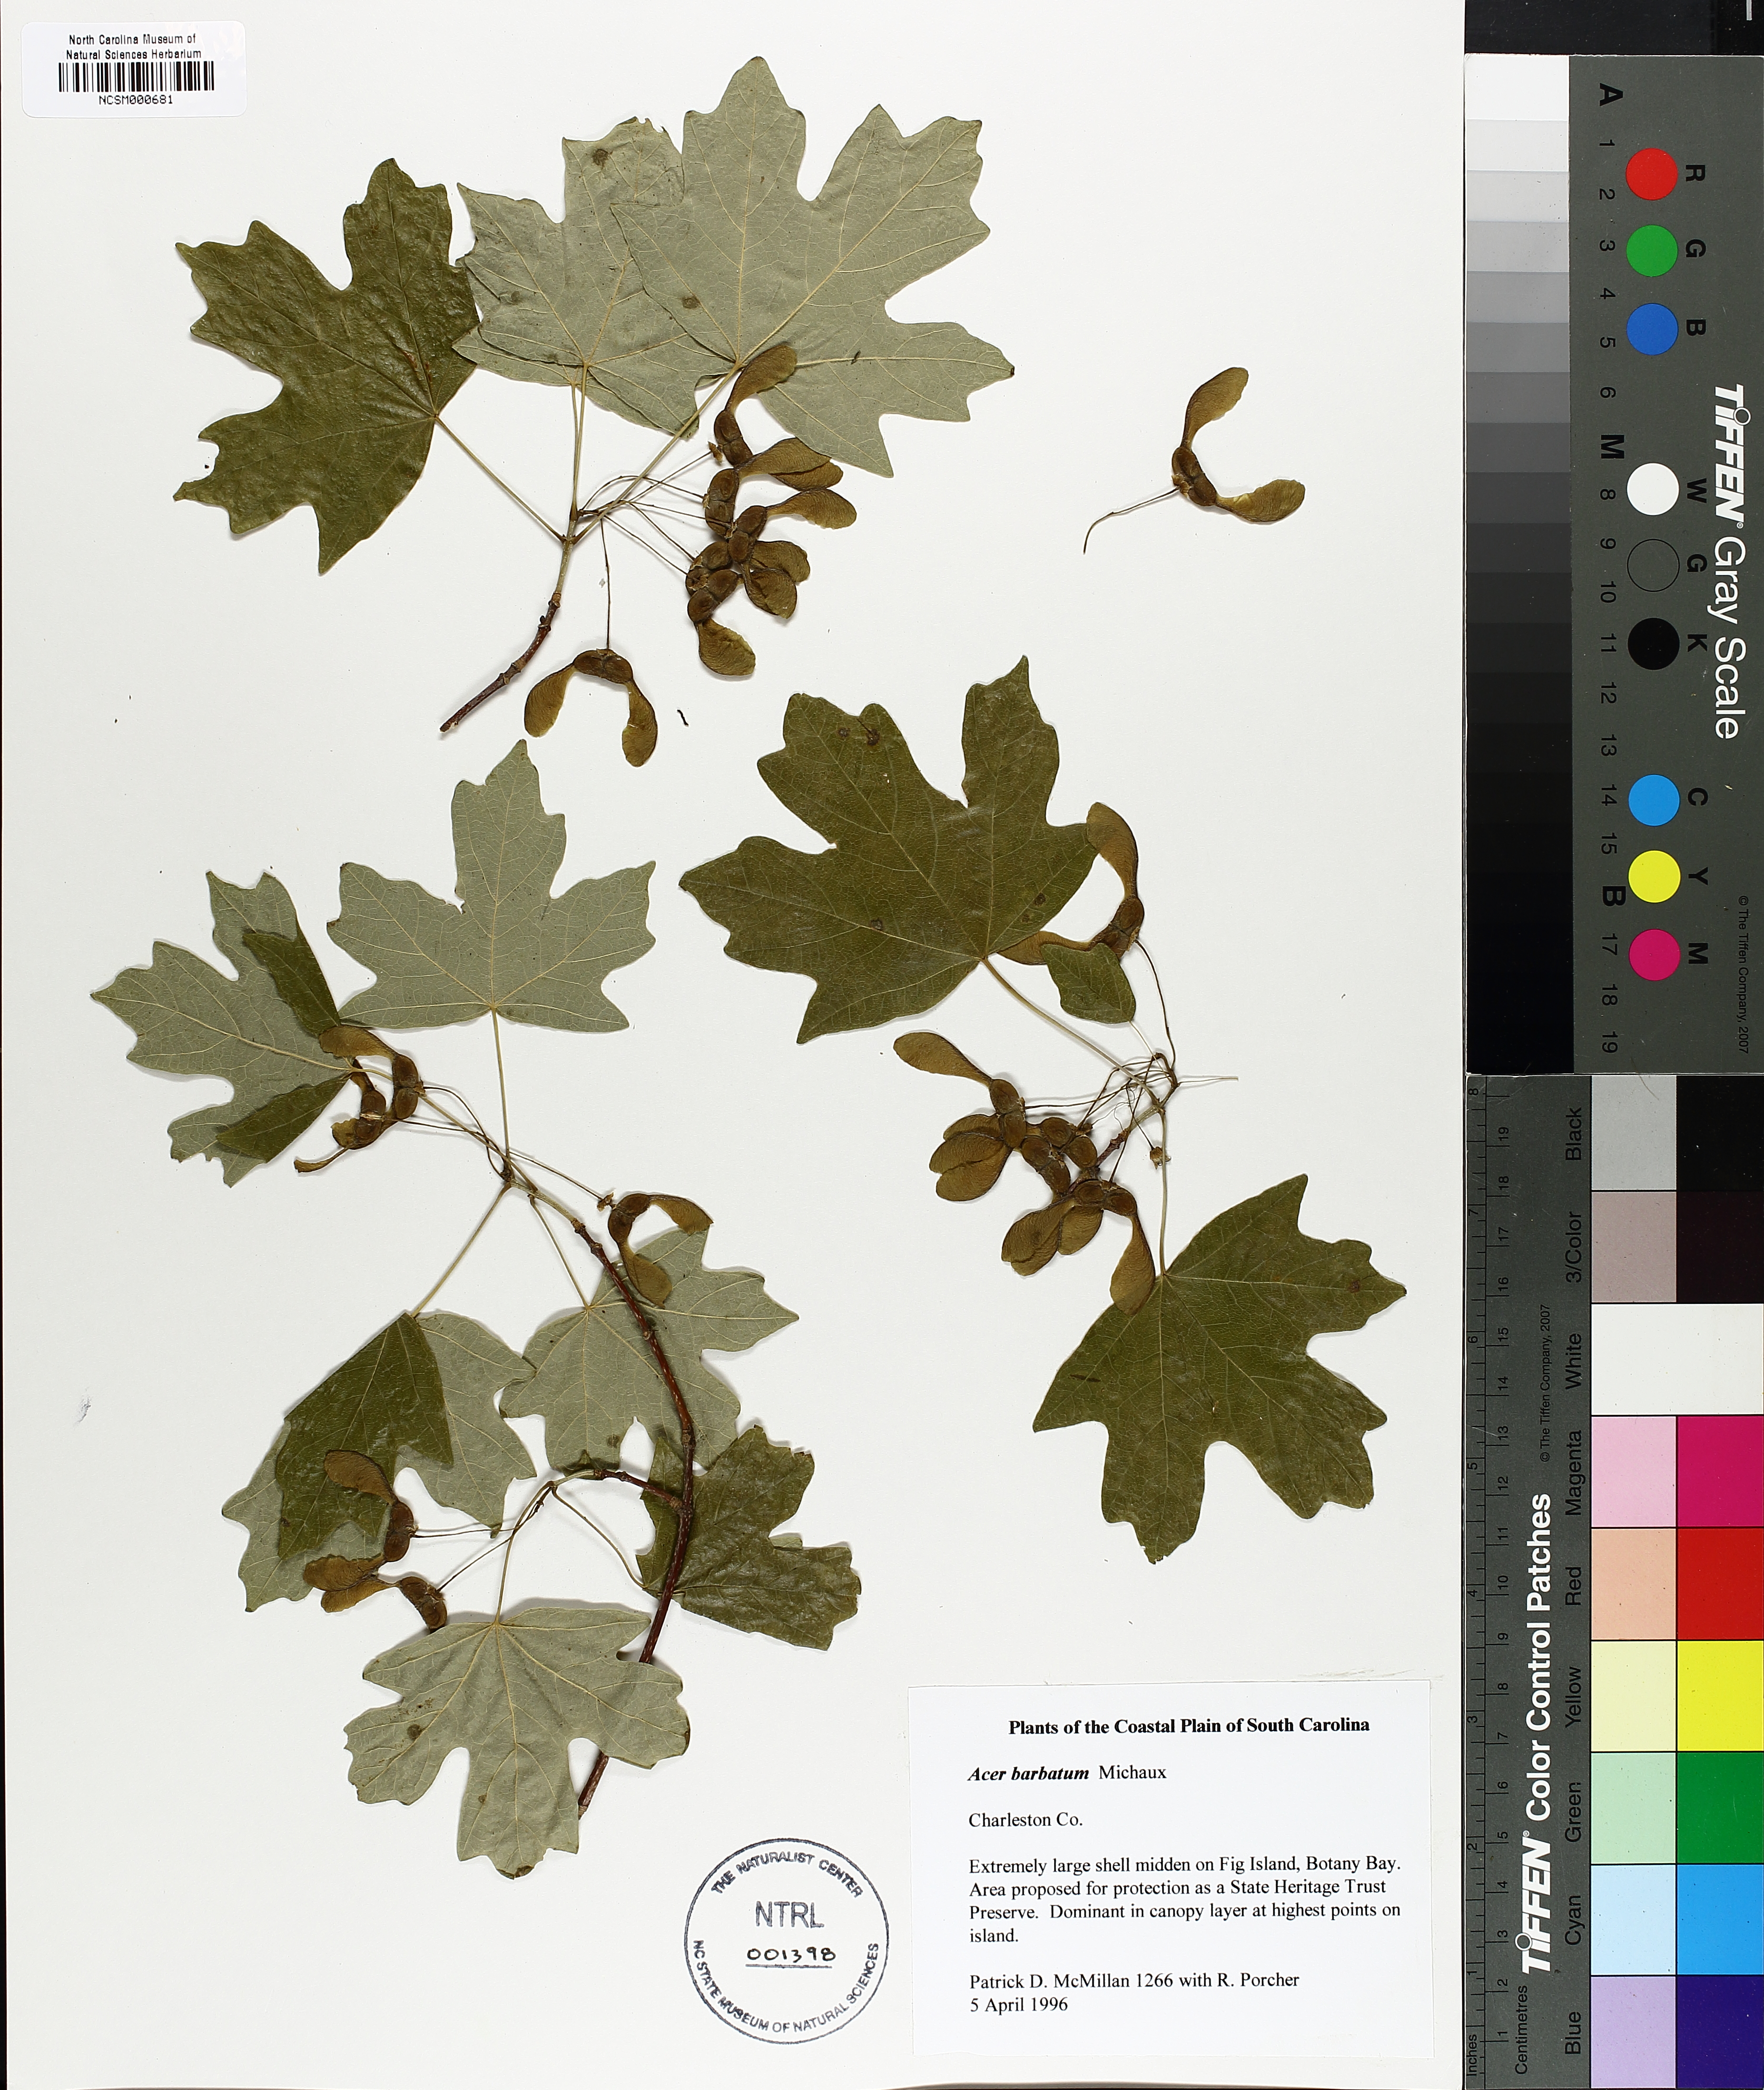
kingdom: Plantae
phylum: Tracheophyta
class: Magnoliopsida
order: Sapindales
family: Sapindaceae
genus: Acer
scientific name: Acer barbatum
